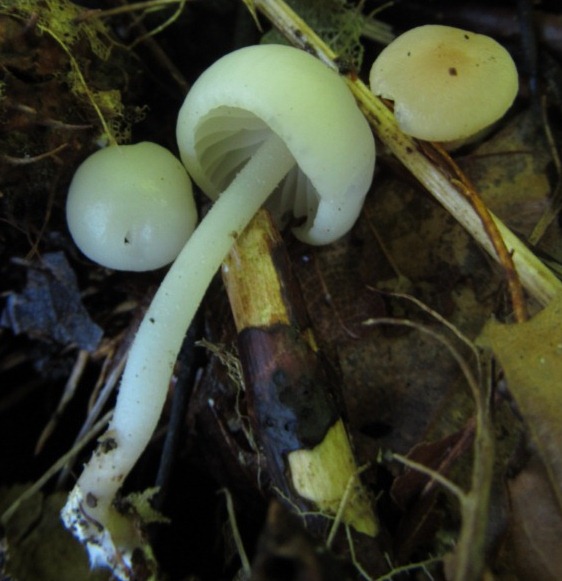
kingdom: Fungi
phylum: Basidiomycota
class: Agaricomycetes
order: Agaricales
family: Marasmiaceae
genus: Marasmius
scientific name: Marasmius wynneae
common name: hvælvet bruskhat
